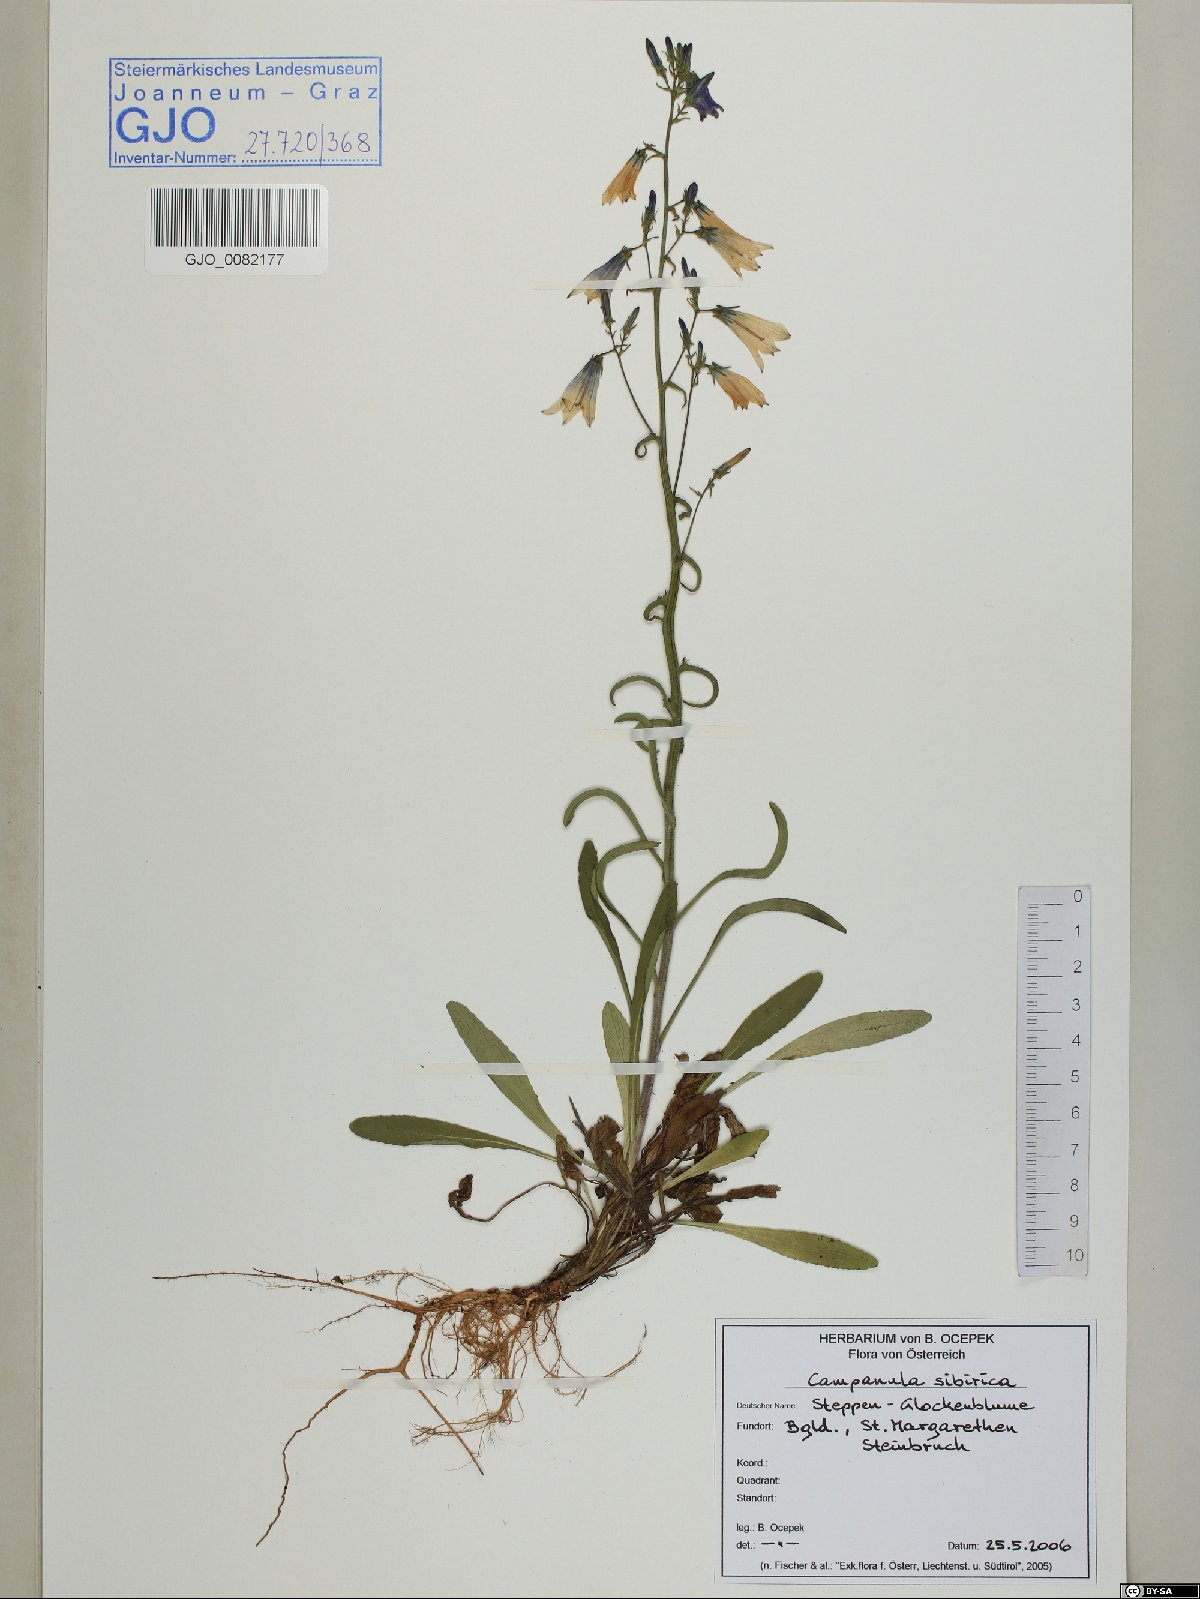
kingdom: Plantae
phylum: Tracheophyta
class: Magnoliopsida
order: Asterales
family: Campanulaceae
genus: Campanula
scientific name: Campanula sibirica
